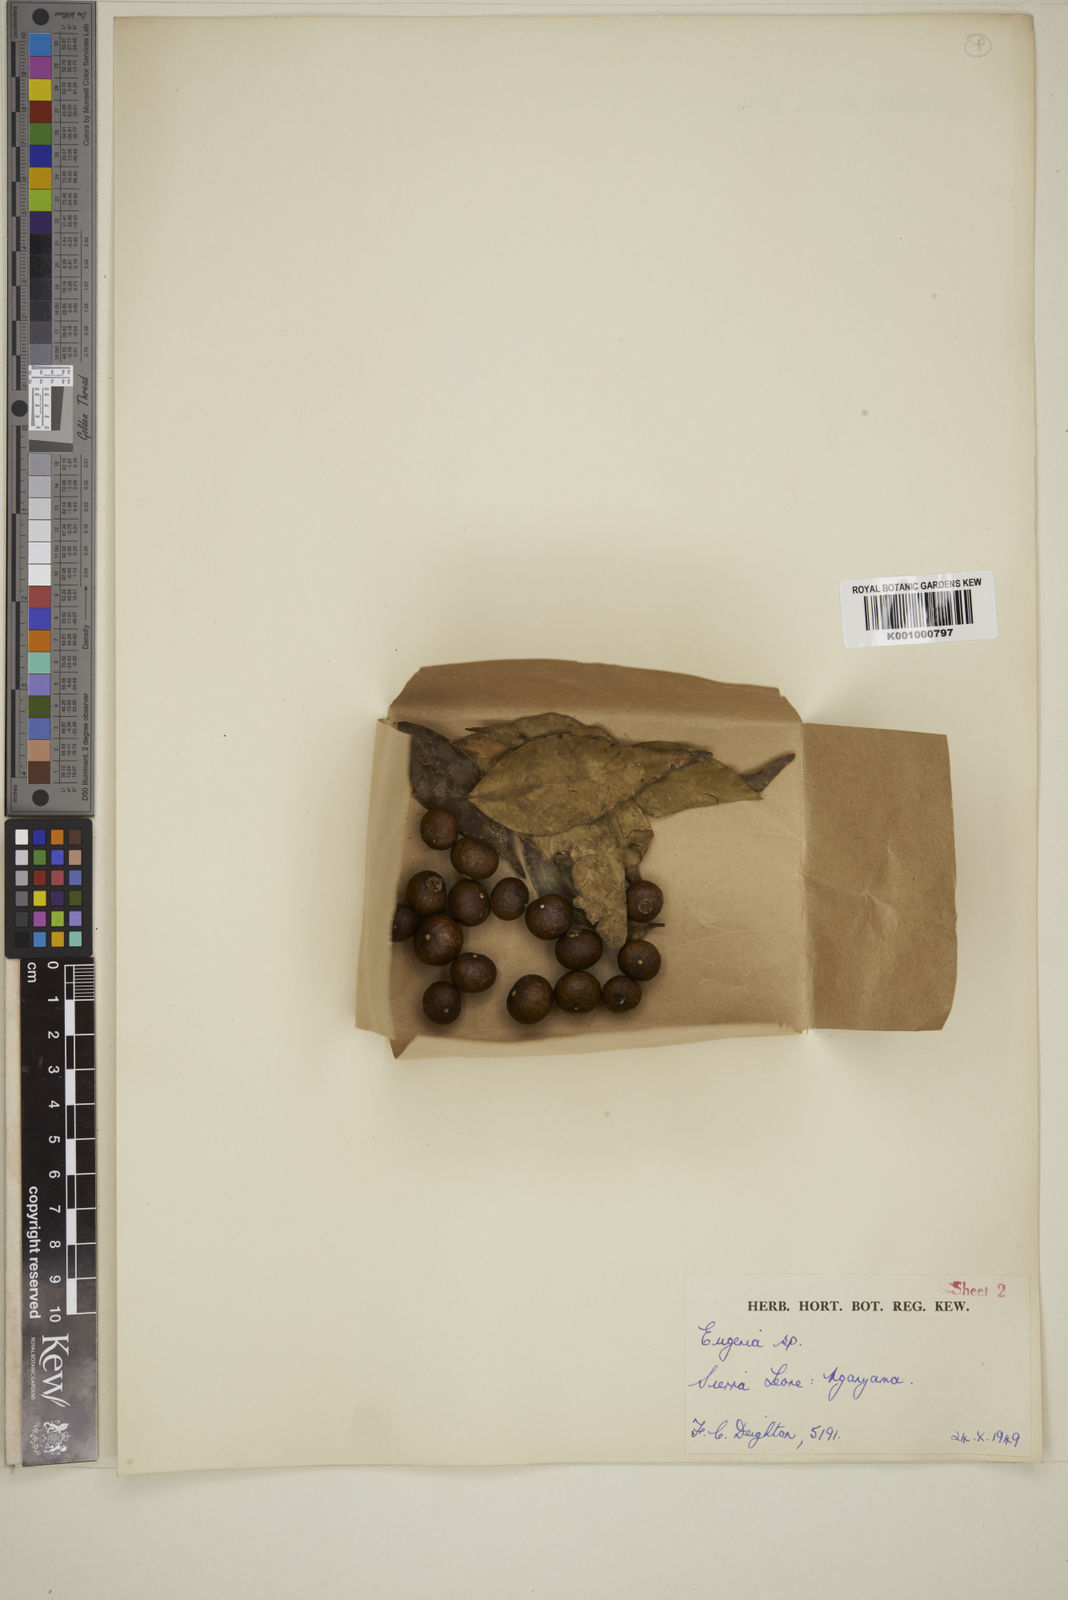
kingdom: Plantae
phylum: Tracheophyta
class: Magnoliopsida
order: Myrtales
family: Myrtaceae
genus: Eugenia
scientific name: Eugenia
